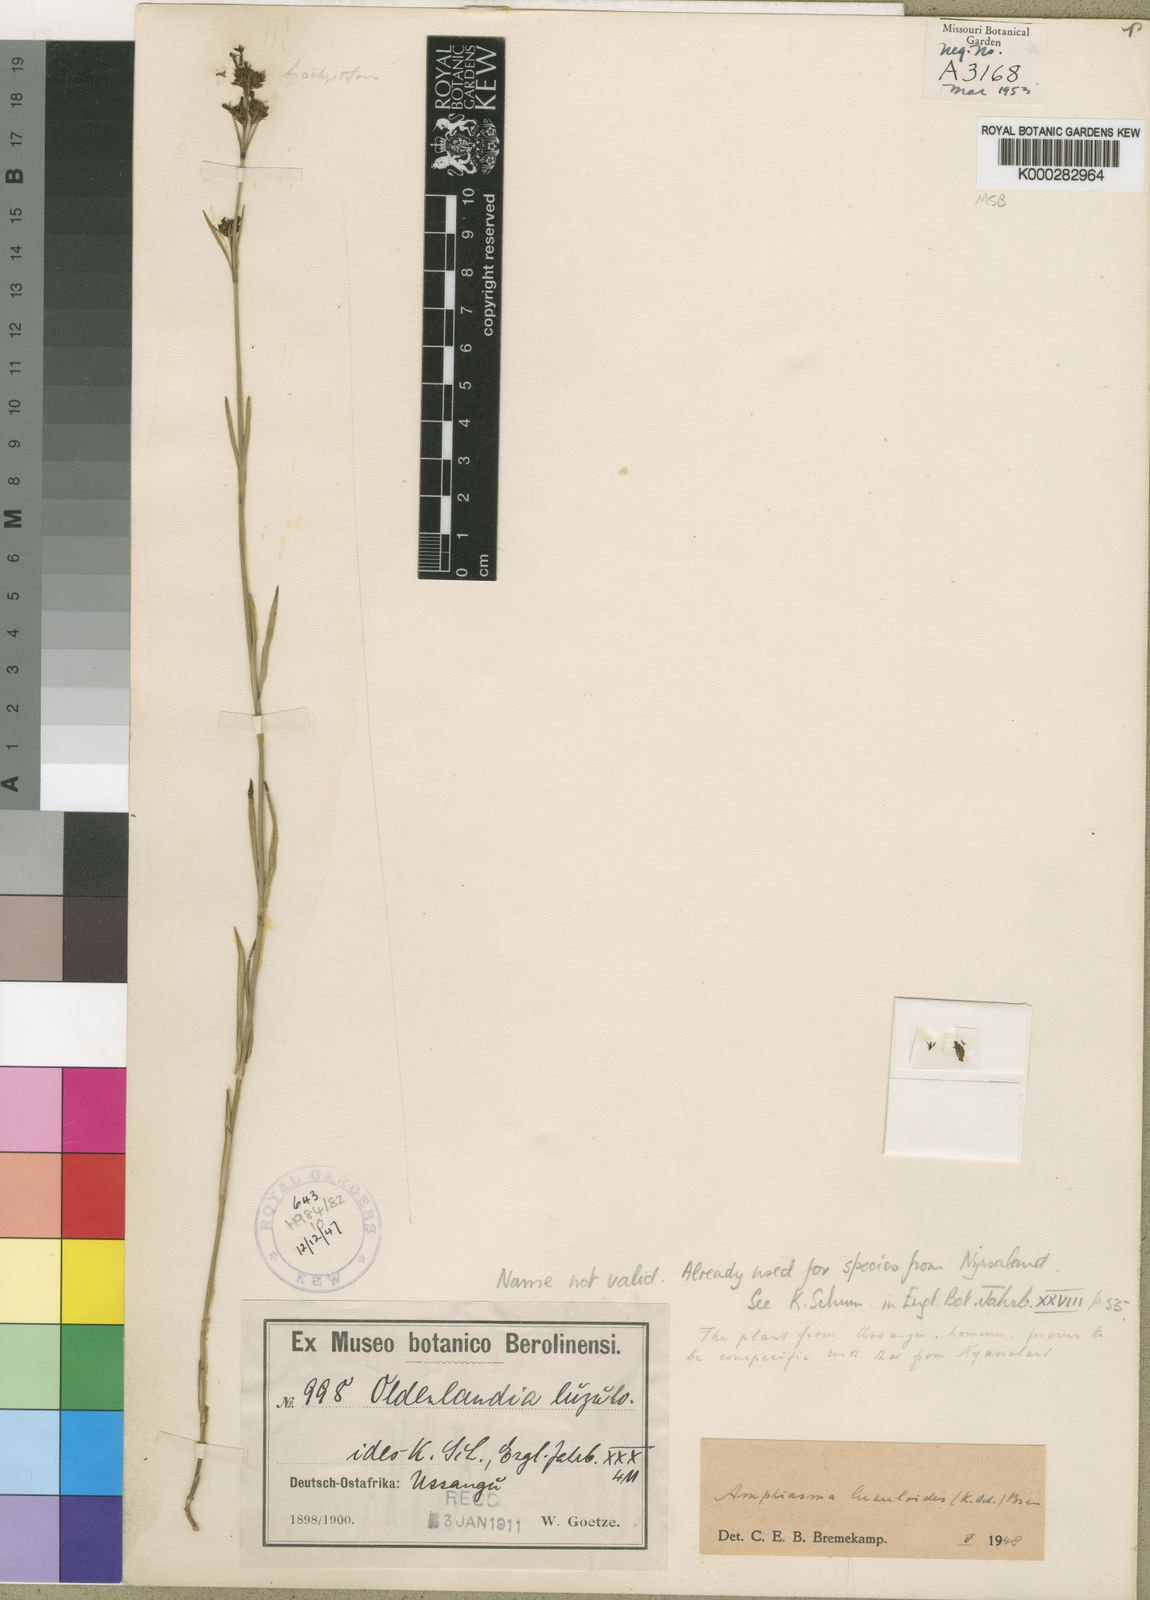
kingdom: Plantae
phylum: Tracheophyta
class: Magnoliopsida
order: Gentianales
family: Rubiaceae
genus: Amphiasma
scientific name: Amphiasma luzuloides
